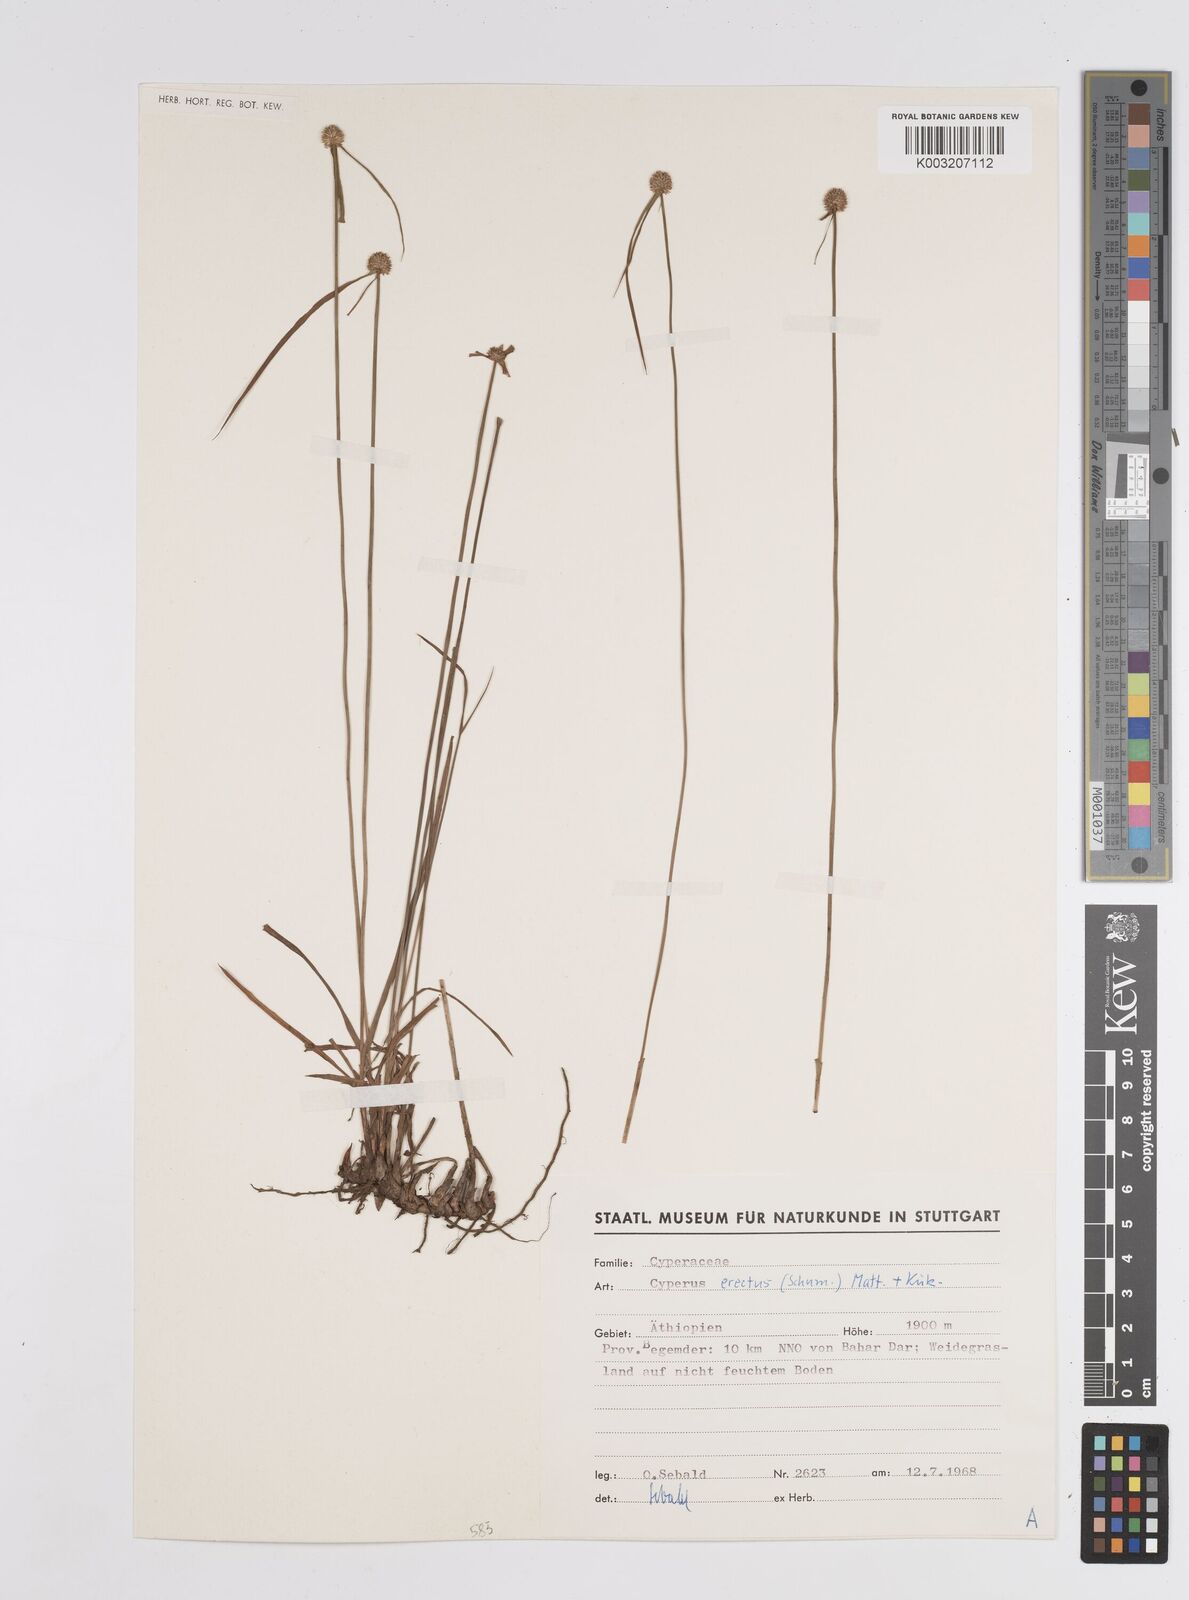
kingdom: Plantae
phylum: Tracheophyta
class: Liliopsida
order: Poales
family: Cyperaceae
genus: Cyperus
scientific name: Cyperus erectus
